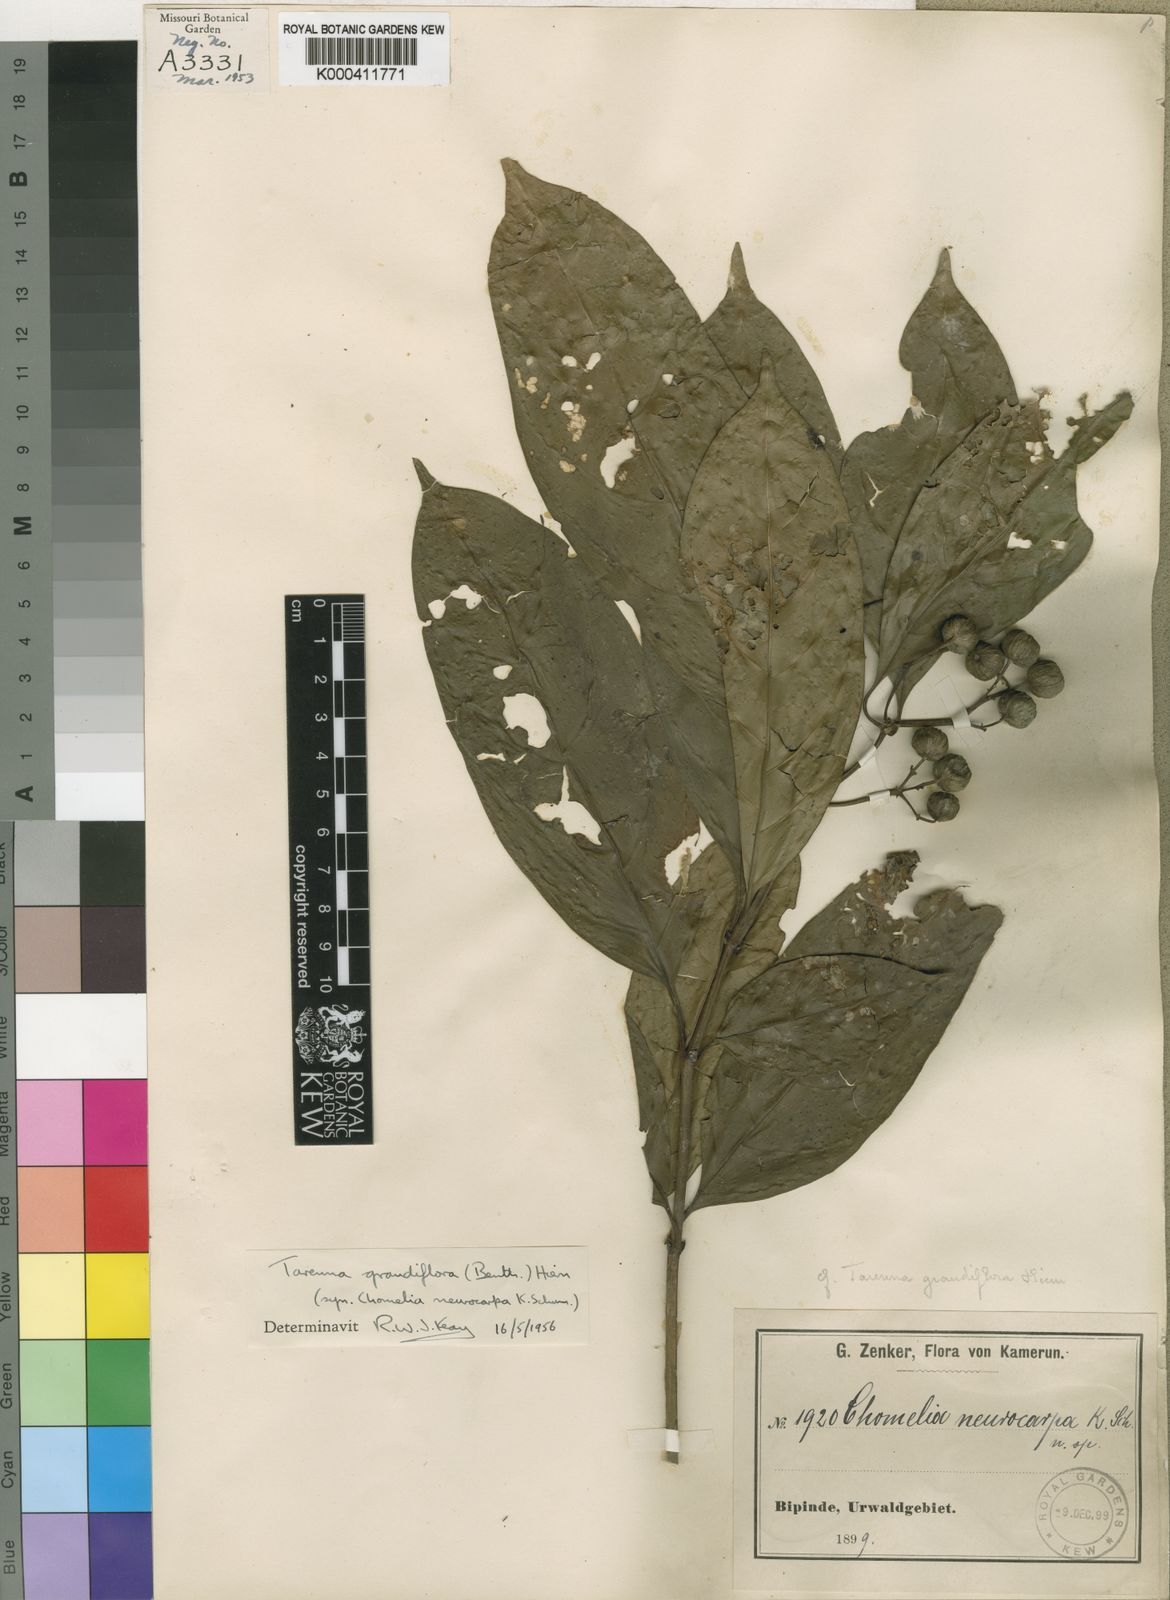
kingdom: Plantae
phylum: Tracheophyta
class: Magnoliopsida
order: Gentianales
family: Rubiaceae
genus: Tarenna
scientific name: Tarenna grandiflora
